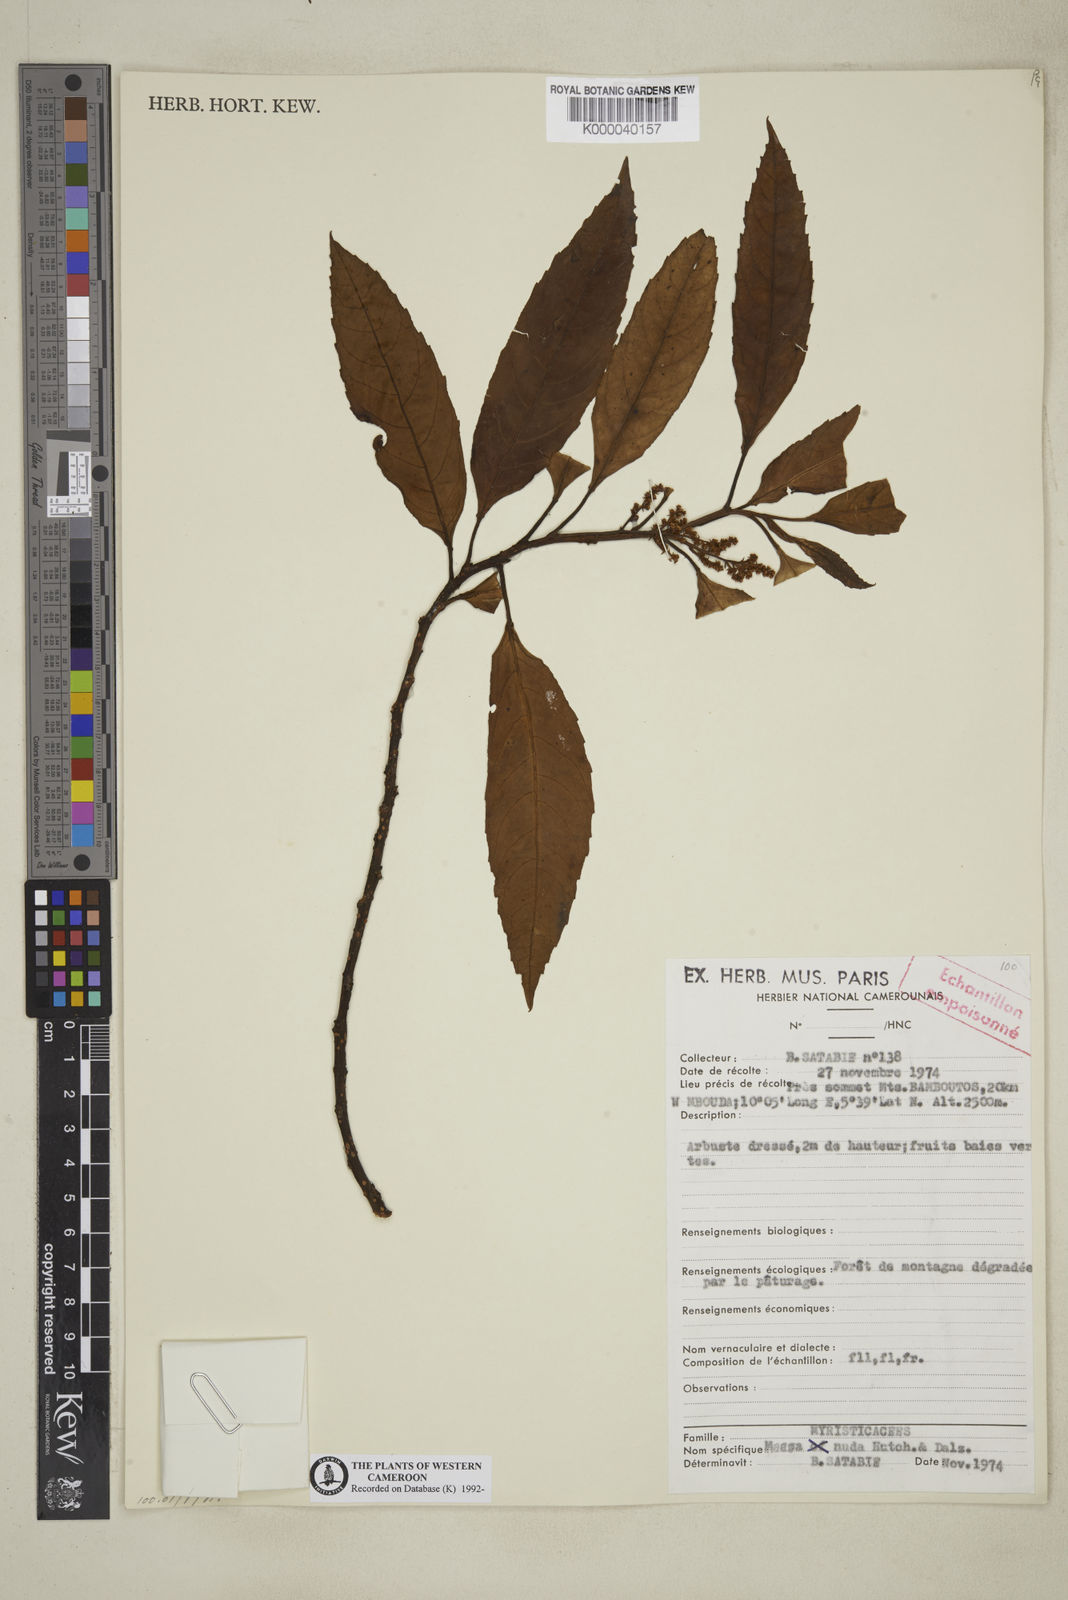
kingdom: Plantae
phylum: Tracheophyta
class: Magnoliopsida
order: Ericales
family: Primulaceae
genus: Maesa
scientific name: Maesa nuda
